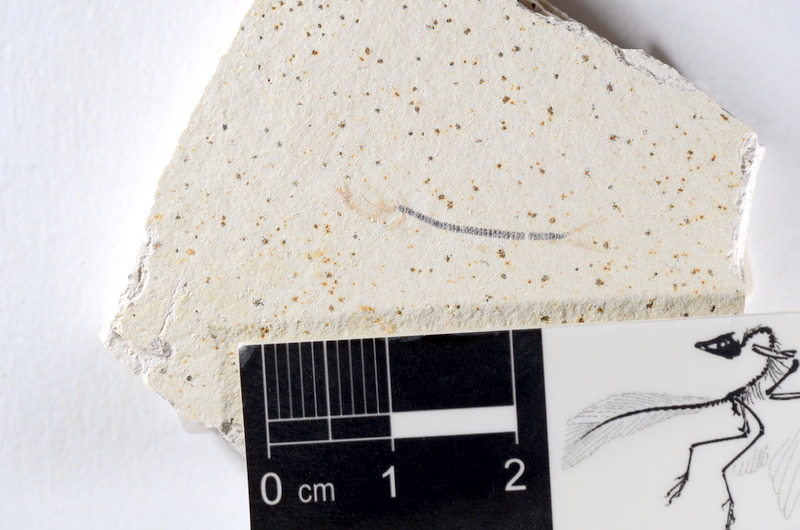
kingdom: Animalia
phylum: Chordata
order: Salmoniformes
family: Orthogonikleithridae
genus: Orthogonikleithrus
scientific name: Orthogonikleithrus hoelli
